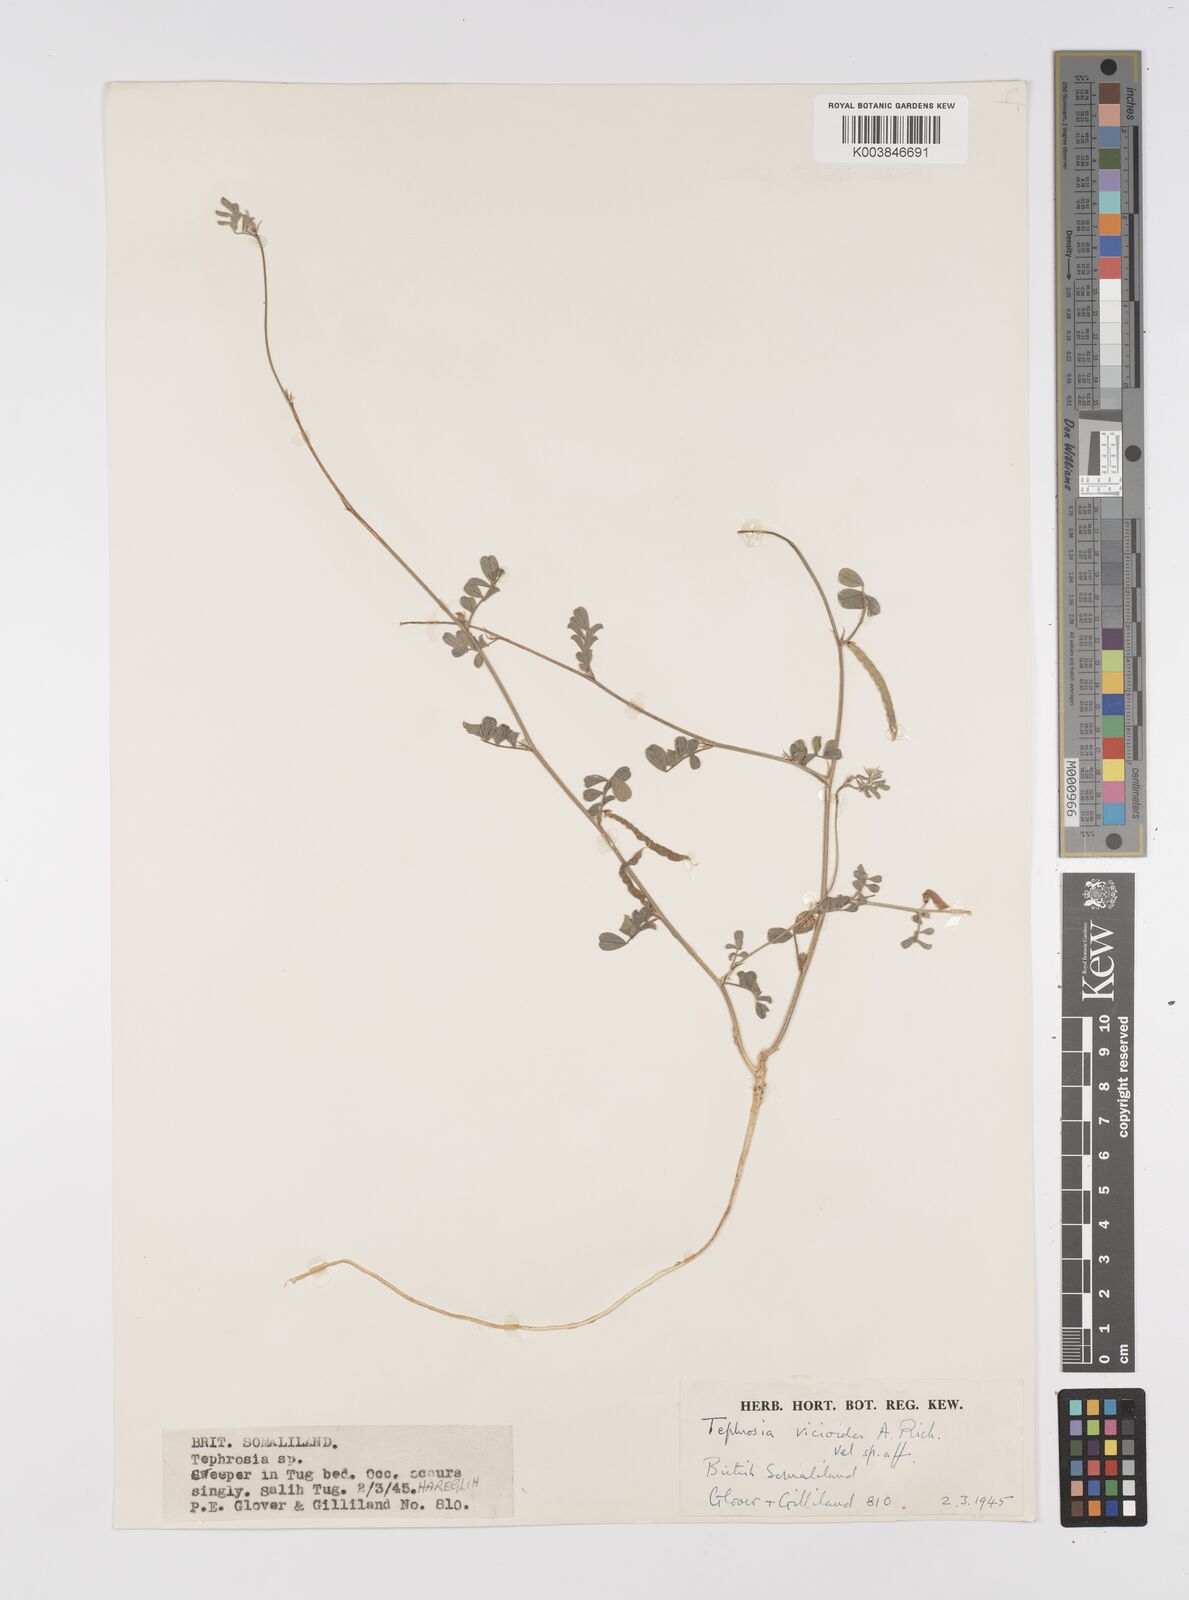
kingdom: Plantae
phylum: Tracheophyta
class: Magnoliopsida
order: Fabales
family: Fabaceae
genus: Tephrosia
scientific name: Tephrosia uniflora
